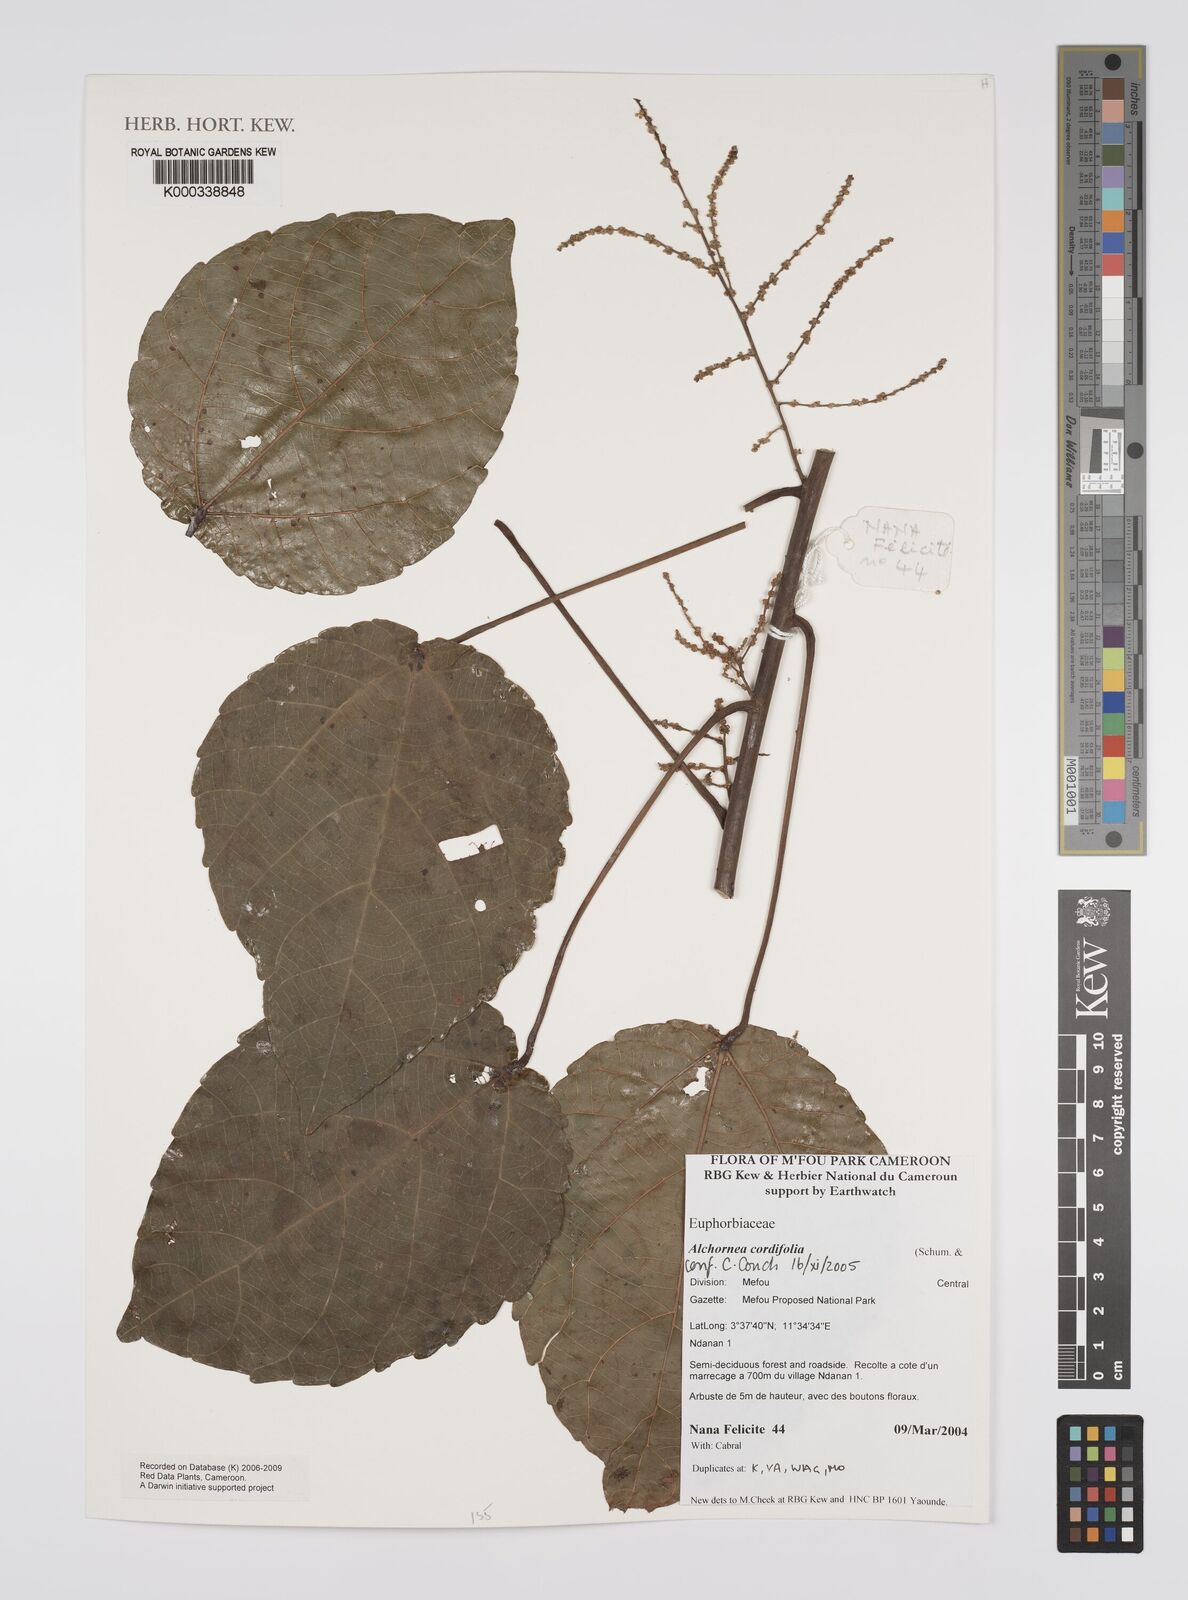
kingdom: Plantae
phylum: Tracheophyta
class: Magnoliopsida
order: Malpighiales
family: Euphorbiaceae
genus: Alchornea
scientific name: Alchornea
